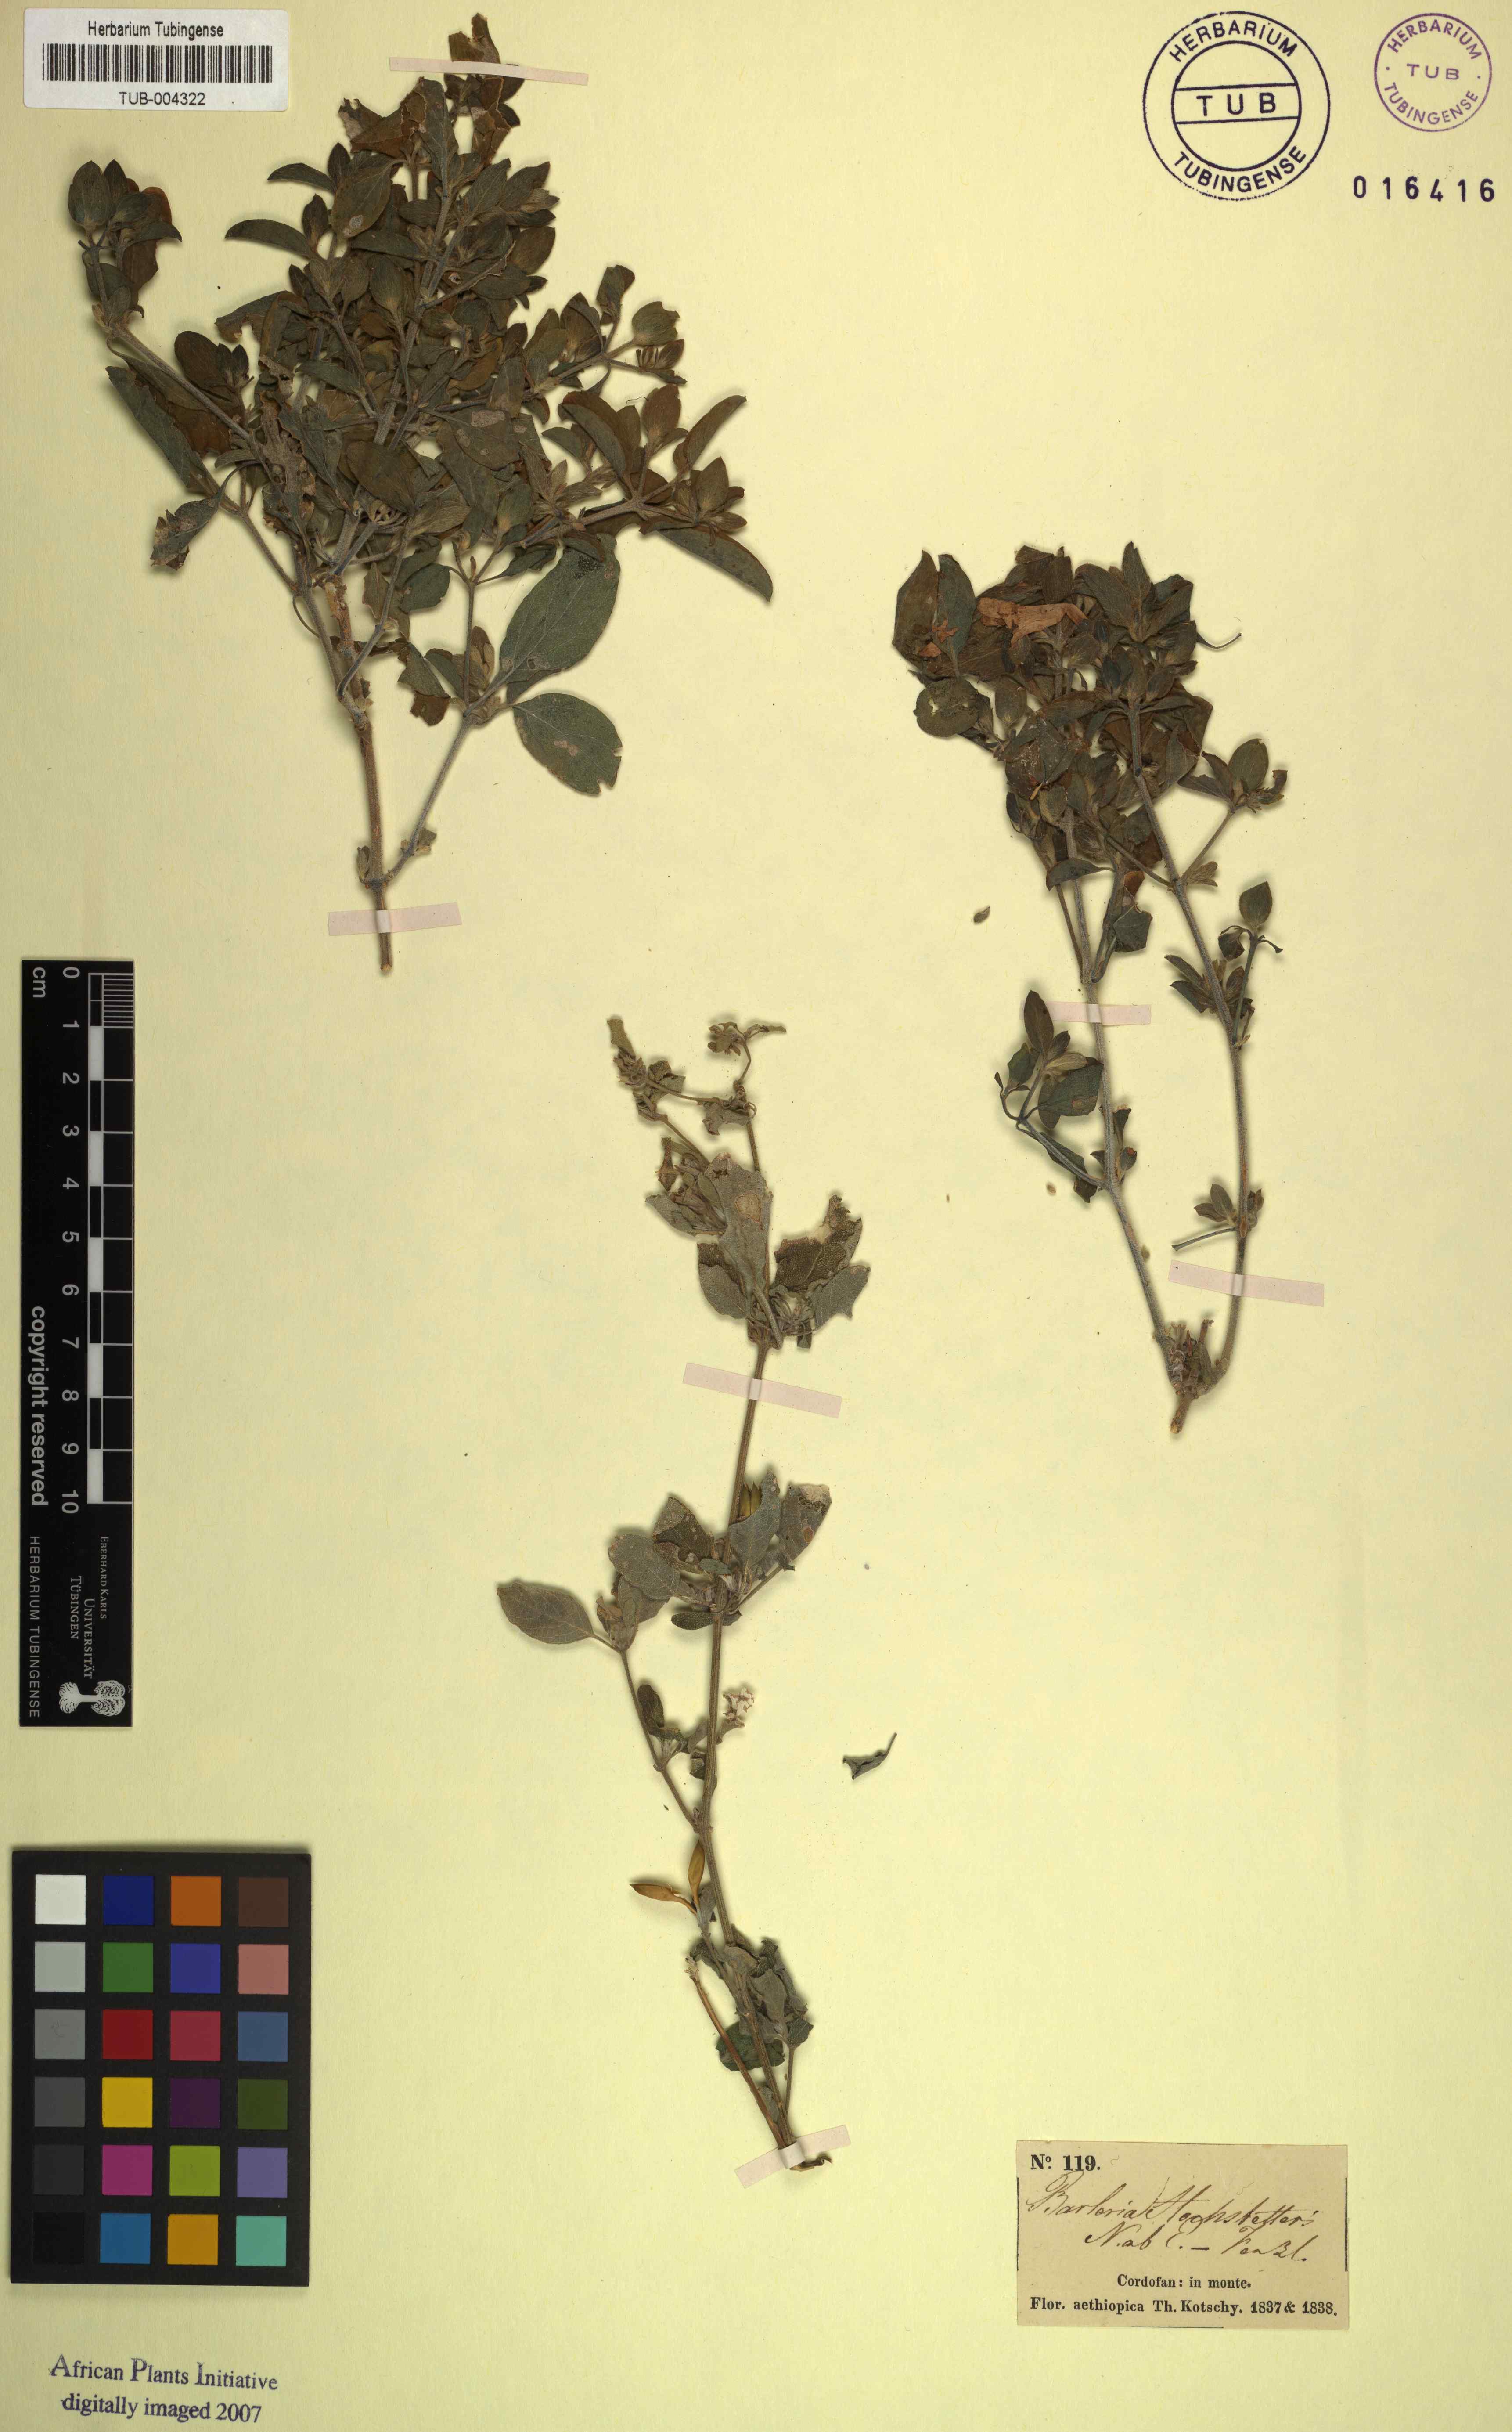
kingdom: Plantae
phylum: Tracheophyta
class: Magnoliopsida
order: Lamiales
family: Acanthaceae
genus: Barleria
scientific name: Barleria hochstetteri
